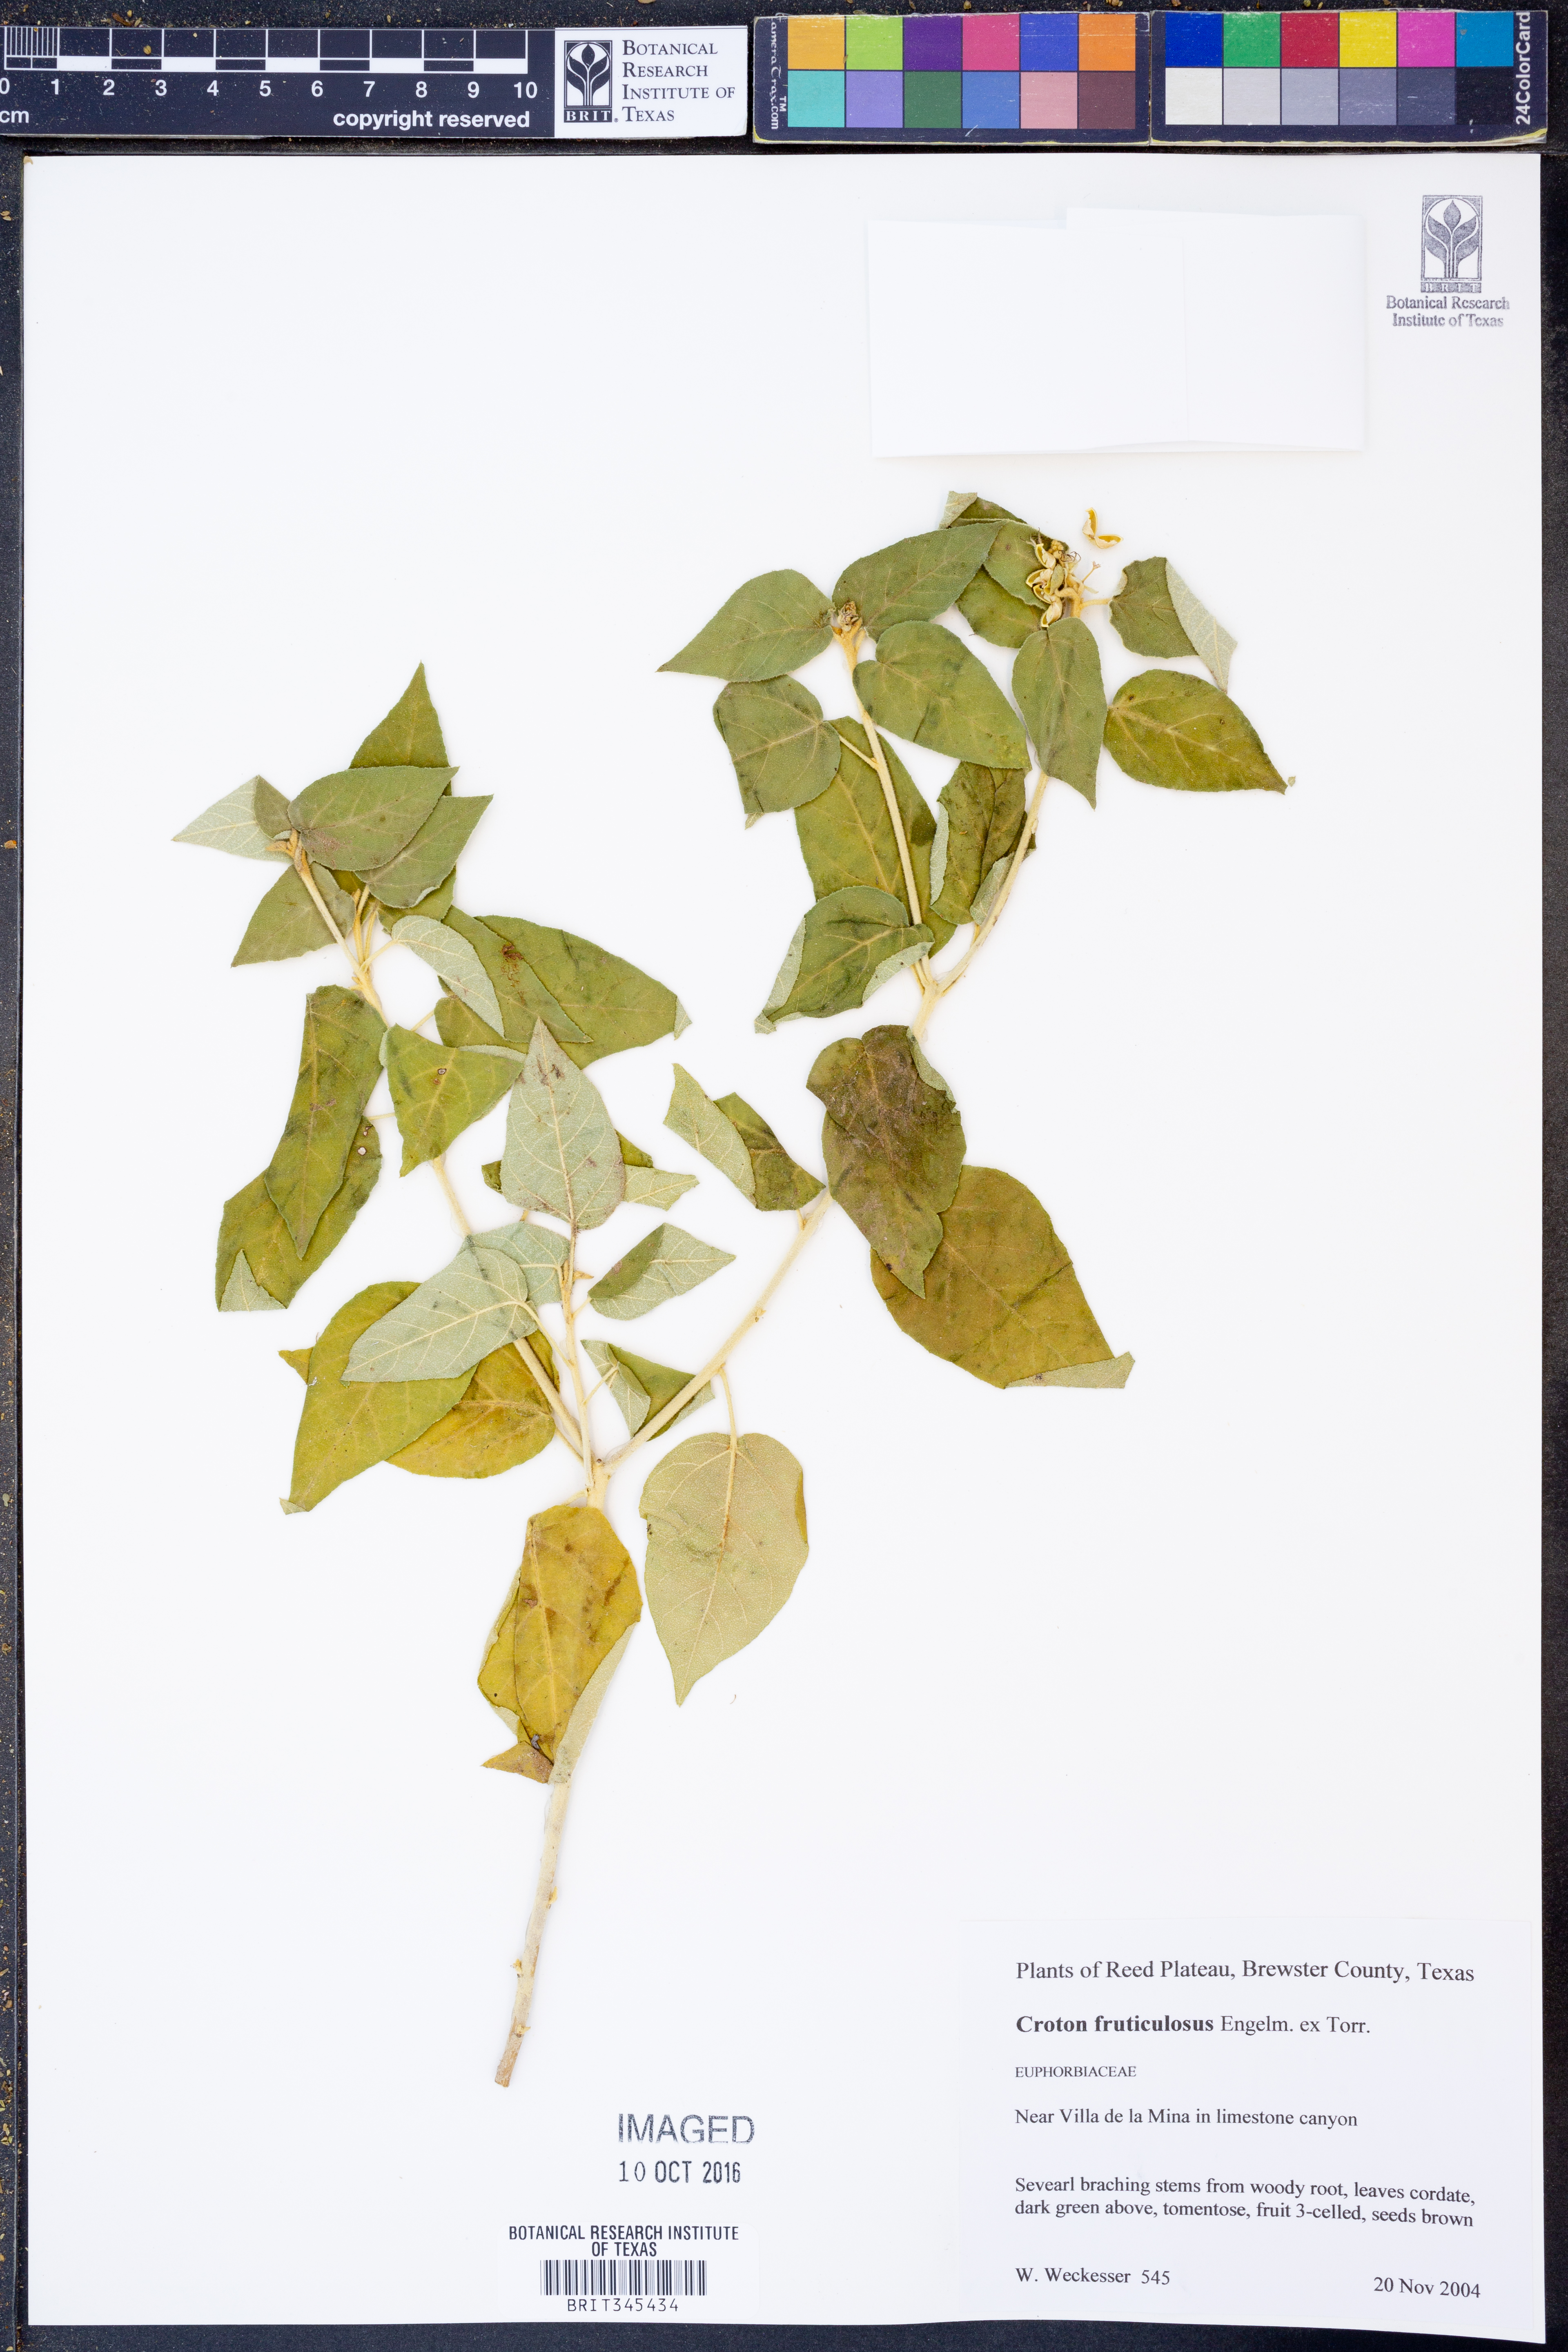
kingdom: Plantae
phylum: Tracheophyta
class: Magnoliopsida
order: Malpighiales
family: Euphorbiaceae
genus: Croton
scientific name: Croton fruticulosus
